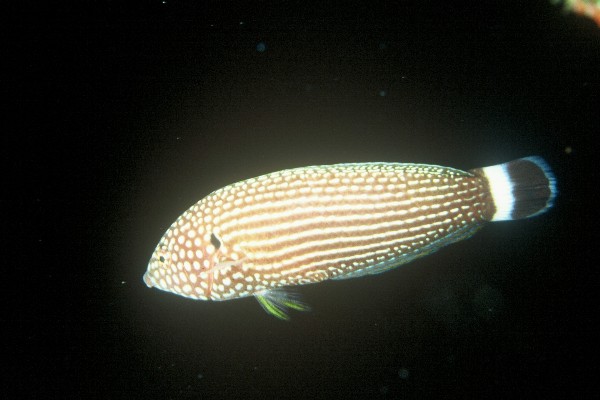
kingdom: Animalia
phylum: Chordata
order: Perciformes
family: Labridae
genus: Anampses
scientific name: Anampses lineatus
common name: Lined wrasse
